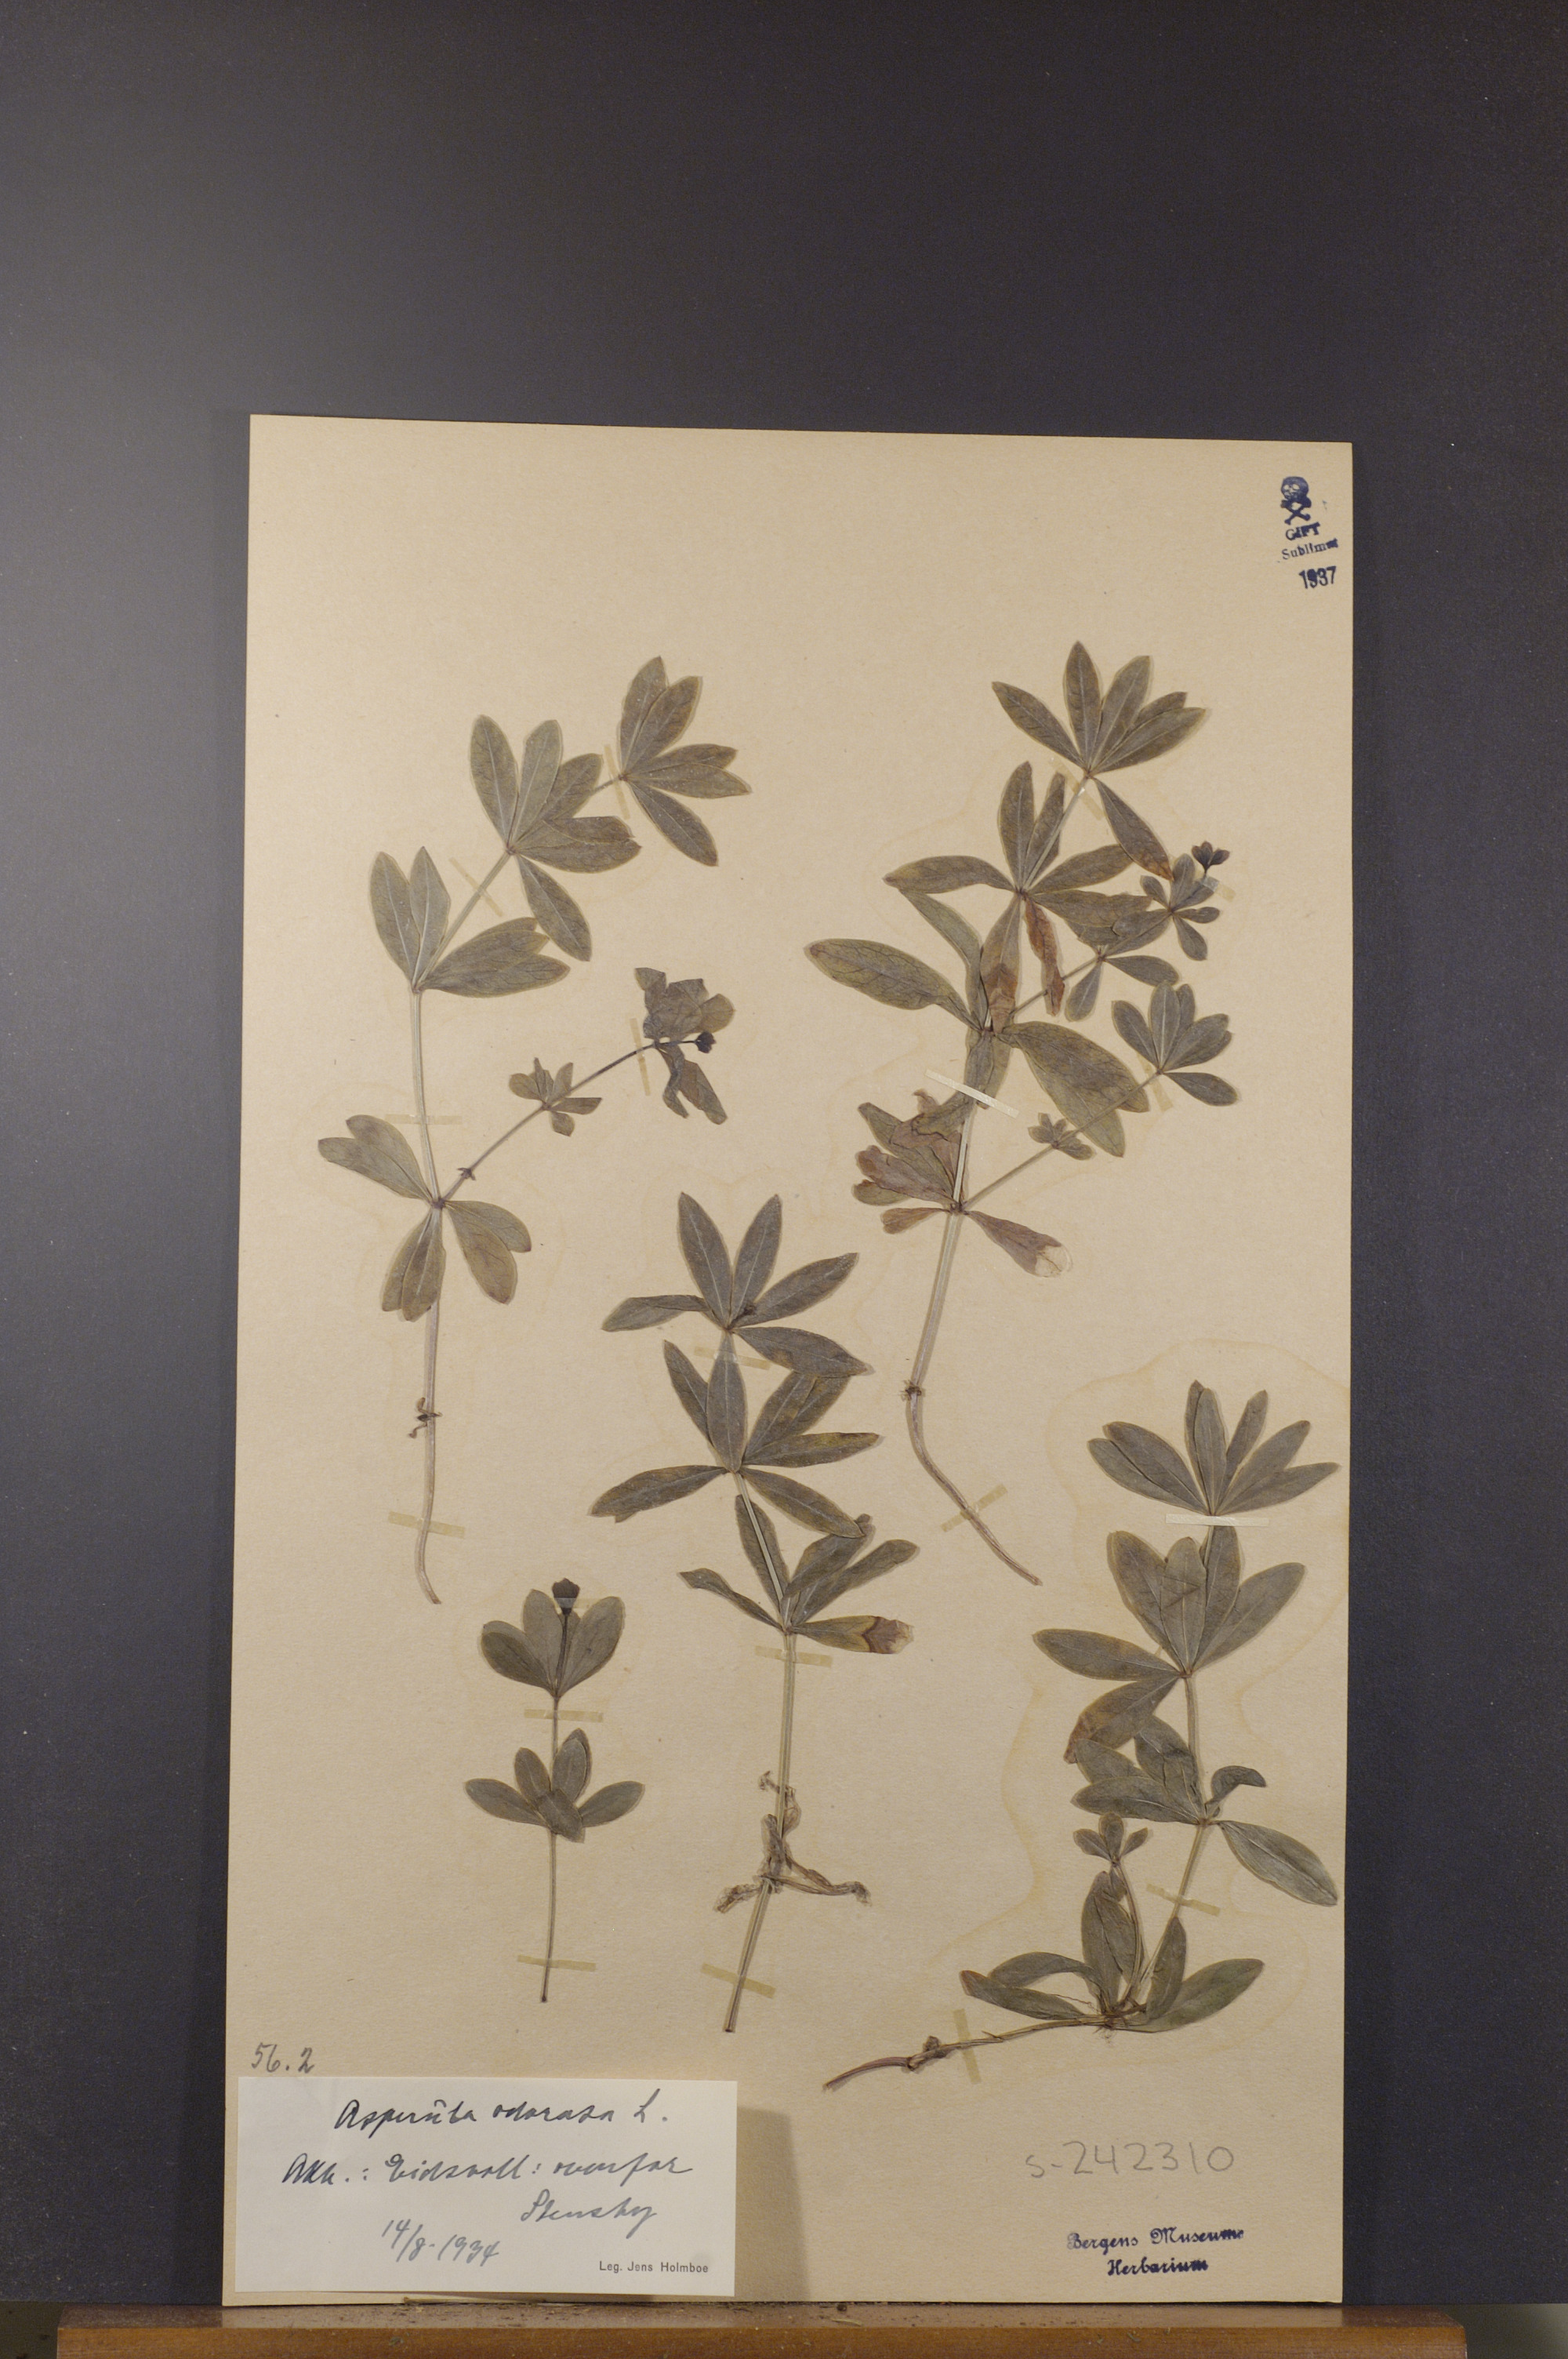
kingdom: Plantae
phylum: Tracheophyta
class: Magnoliopsida
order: Gentianales
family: Rubiaceae
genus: Galium
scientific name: Galium odoratum
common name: Sweet woodruff
